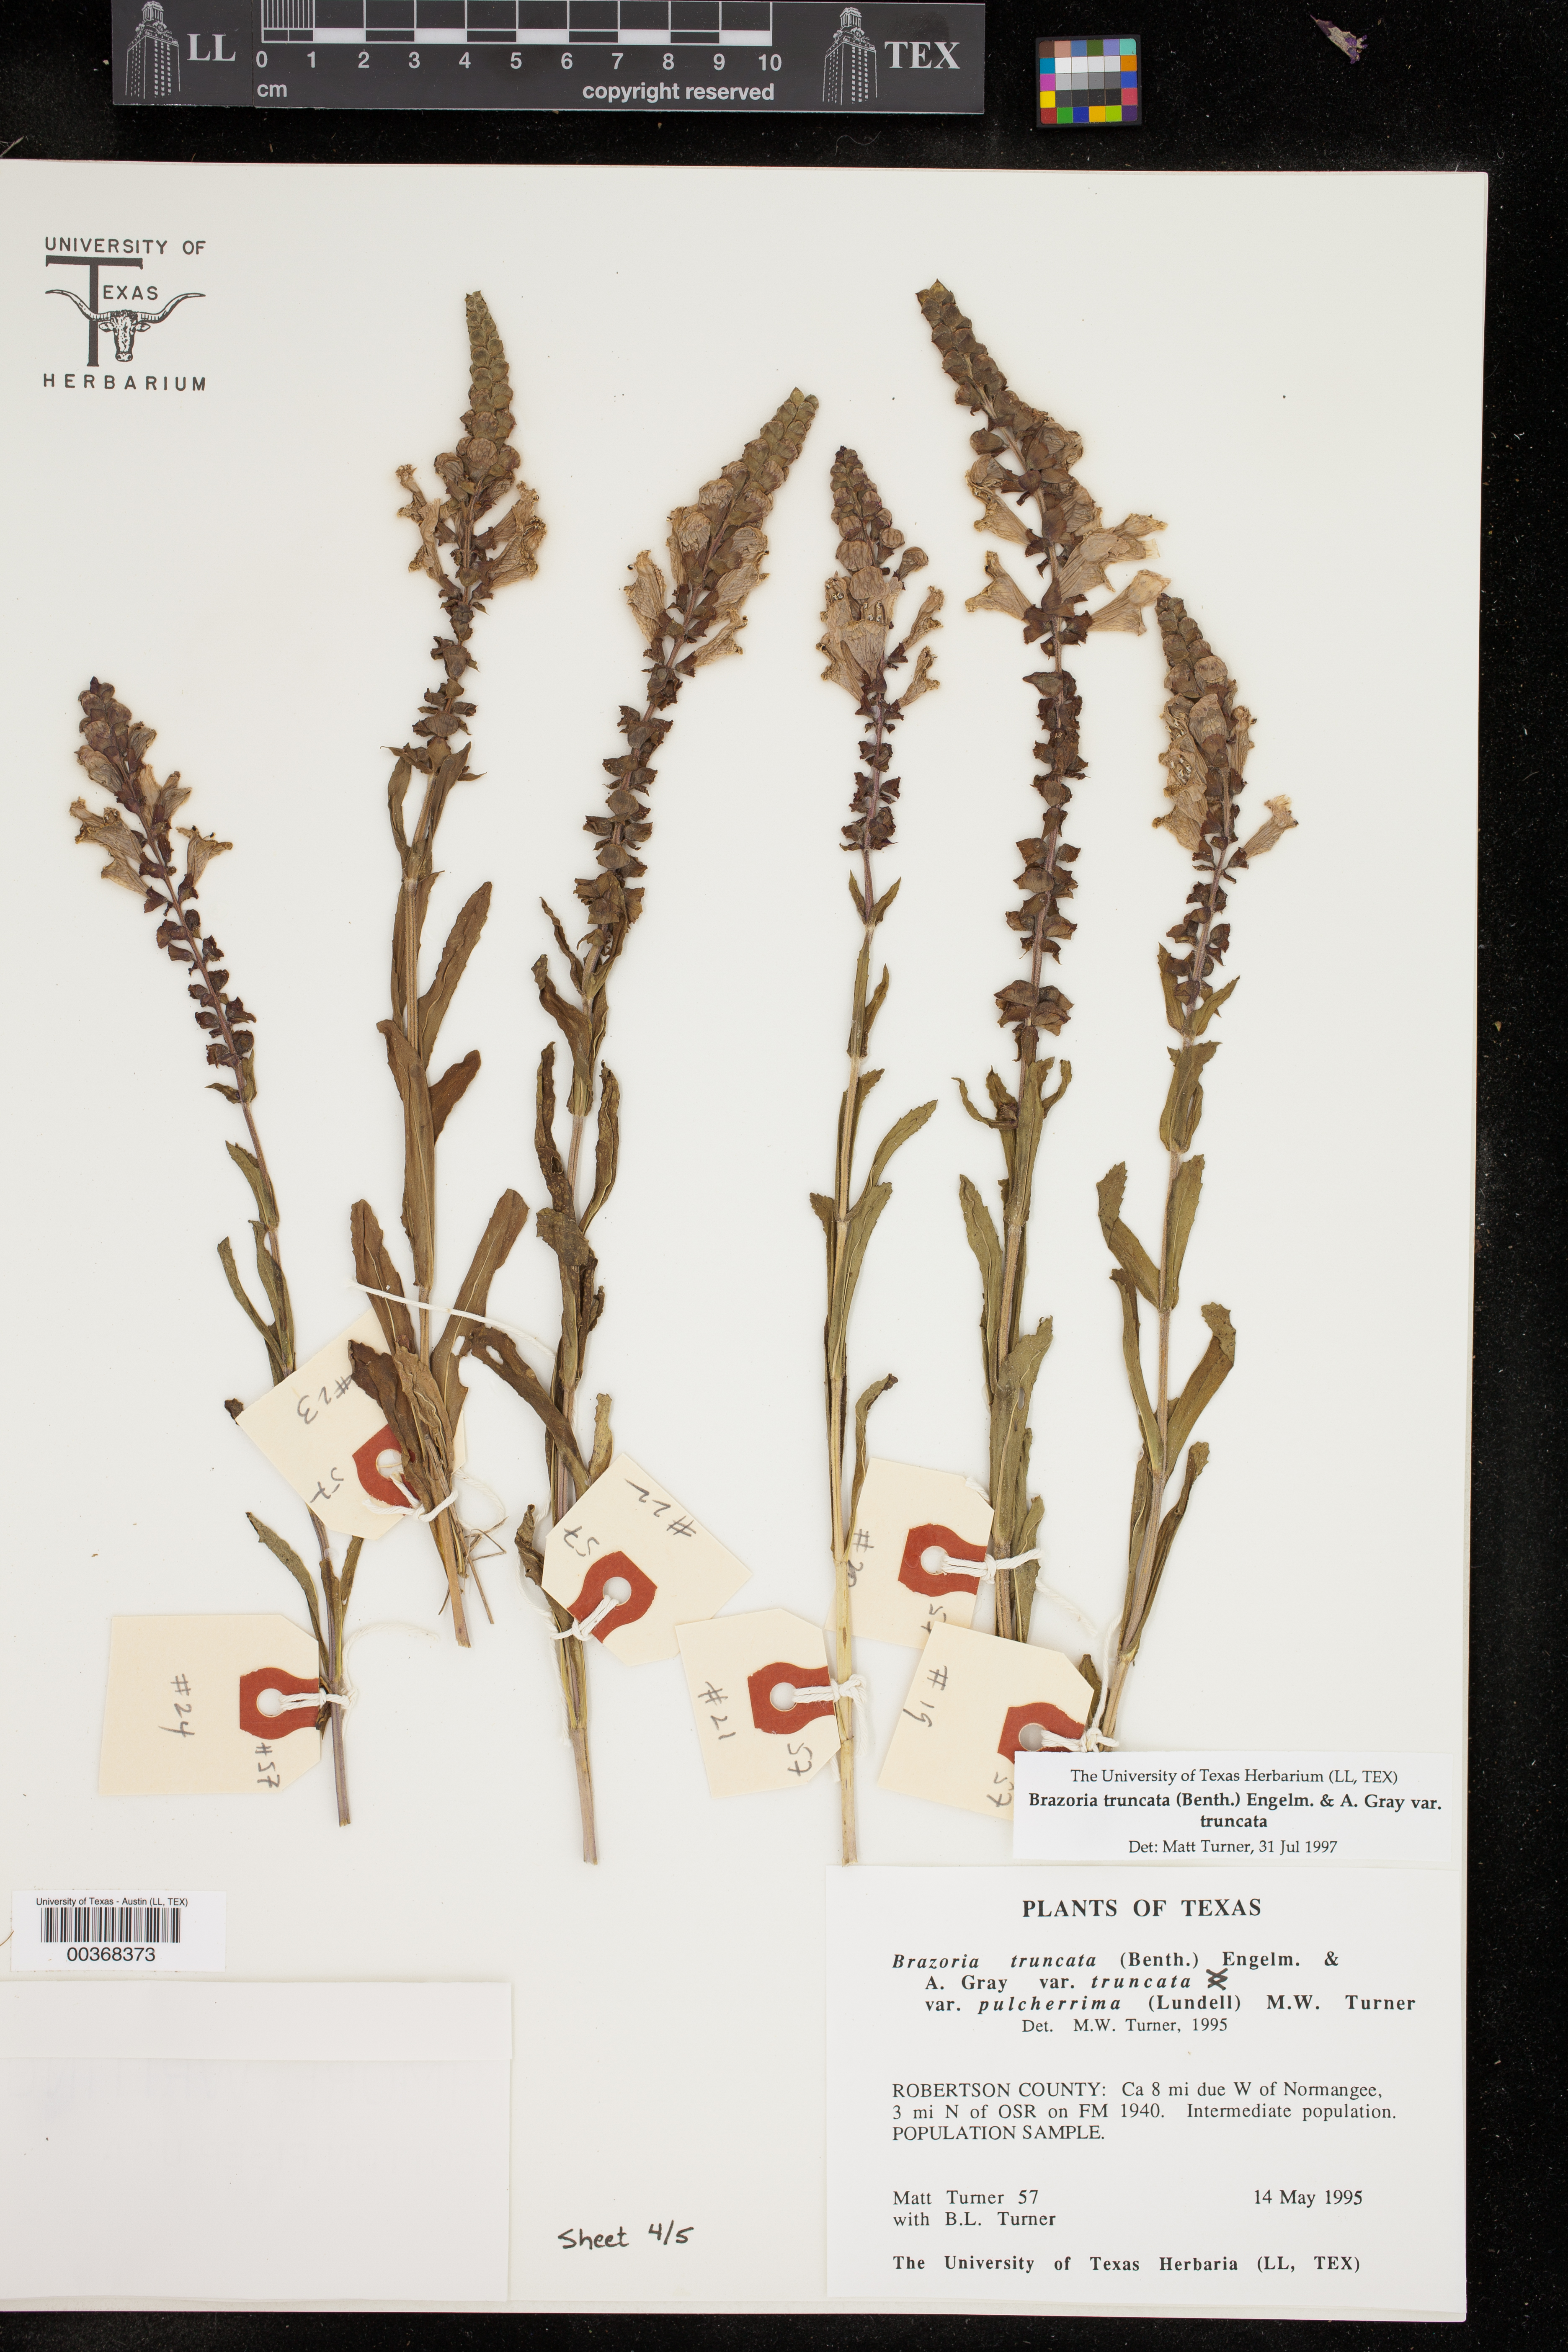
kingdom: Plantae
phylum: Tracheophyta
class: Magnoliopsida
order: Lamiales
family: Lamiaceae
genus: Brazoria
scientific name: Brazoria truncata
